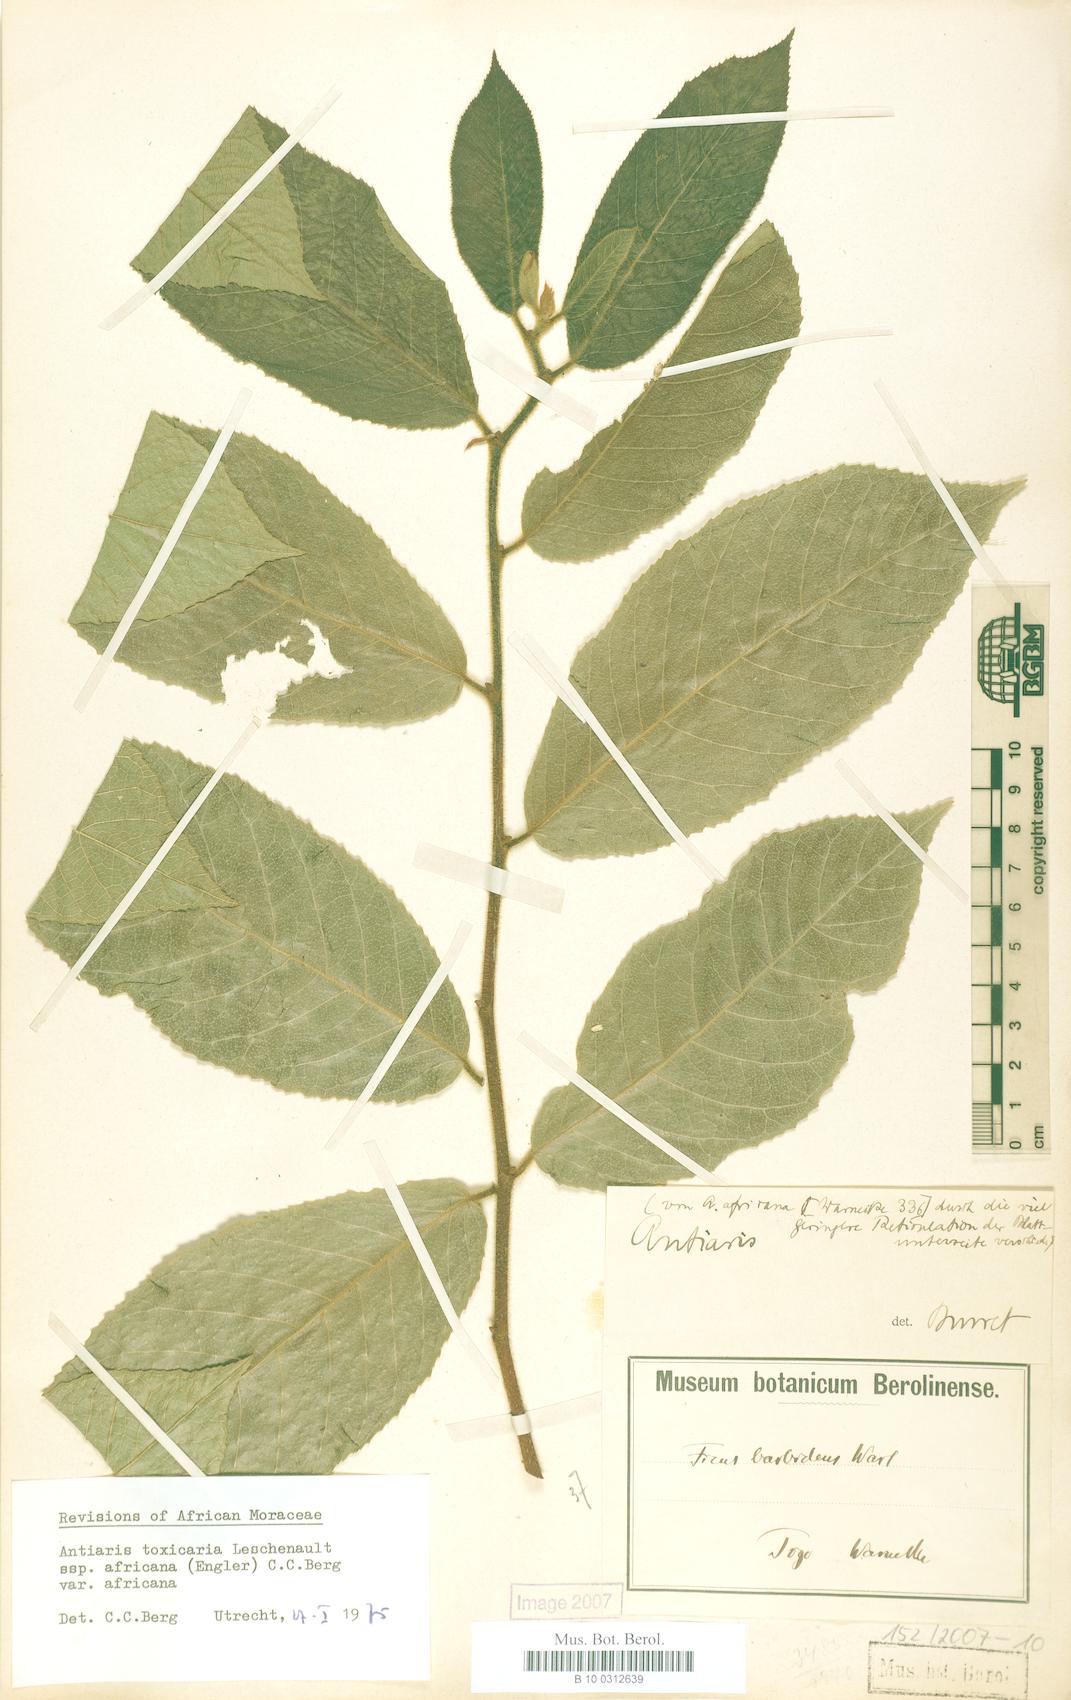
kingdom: Plantae
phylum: Tracheophyta
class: Magnoliopsida
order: Rosales
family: Moraceae
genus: Antiaris
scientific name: Antiaris toxicaria
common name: Sackingtree
